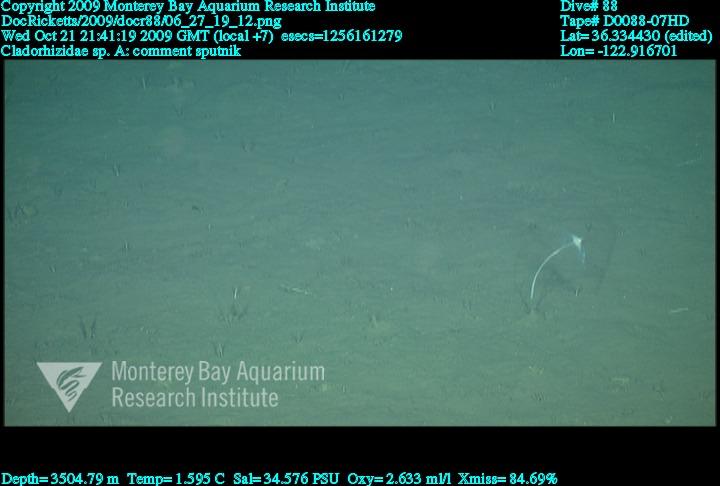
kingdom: Animalia
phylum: Porifera
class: Demospongiae
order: Poecilosclerida
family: Cladorhizidae
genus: Cladorhiza
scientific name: Cladorhiza
